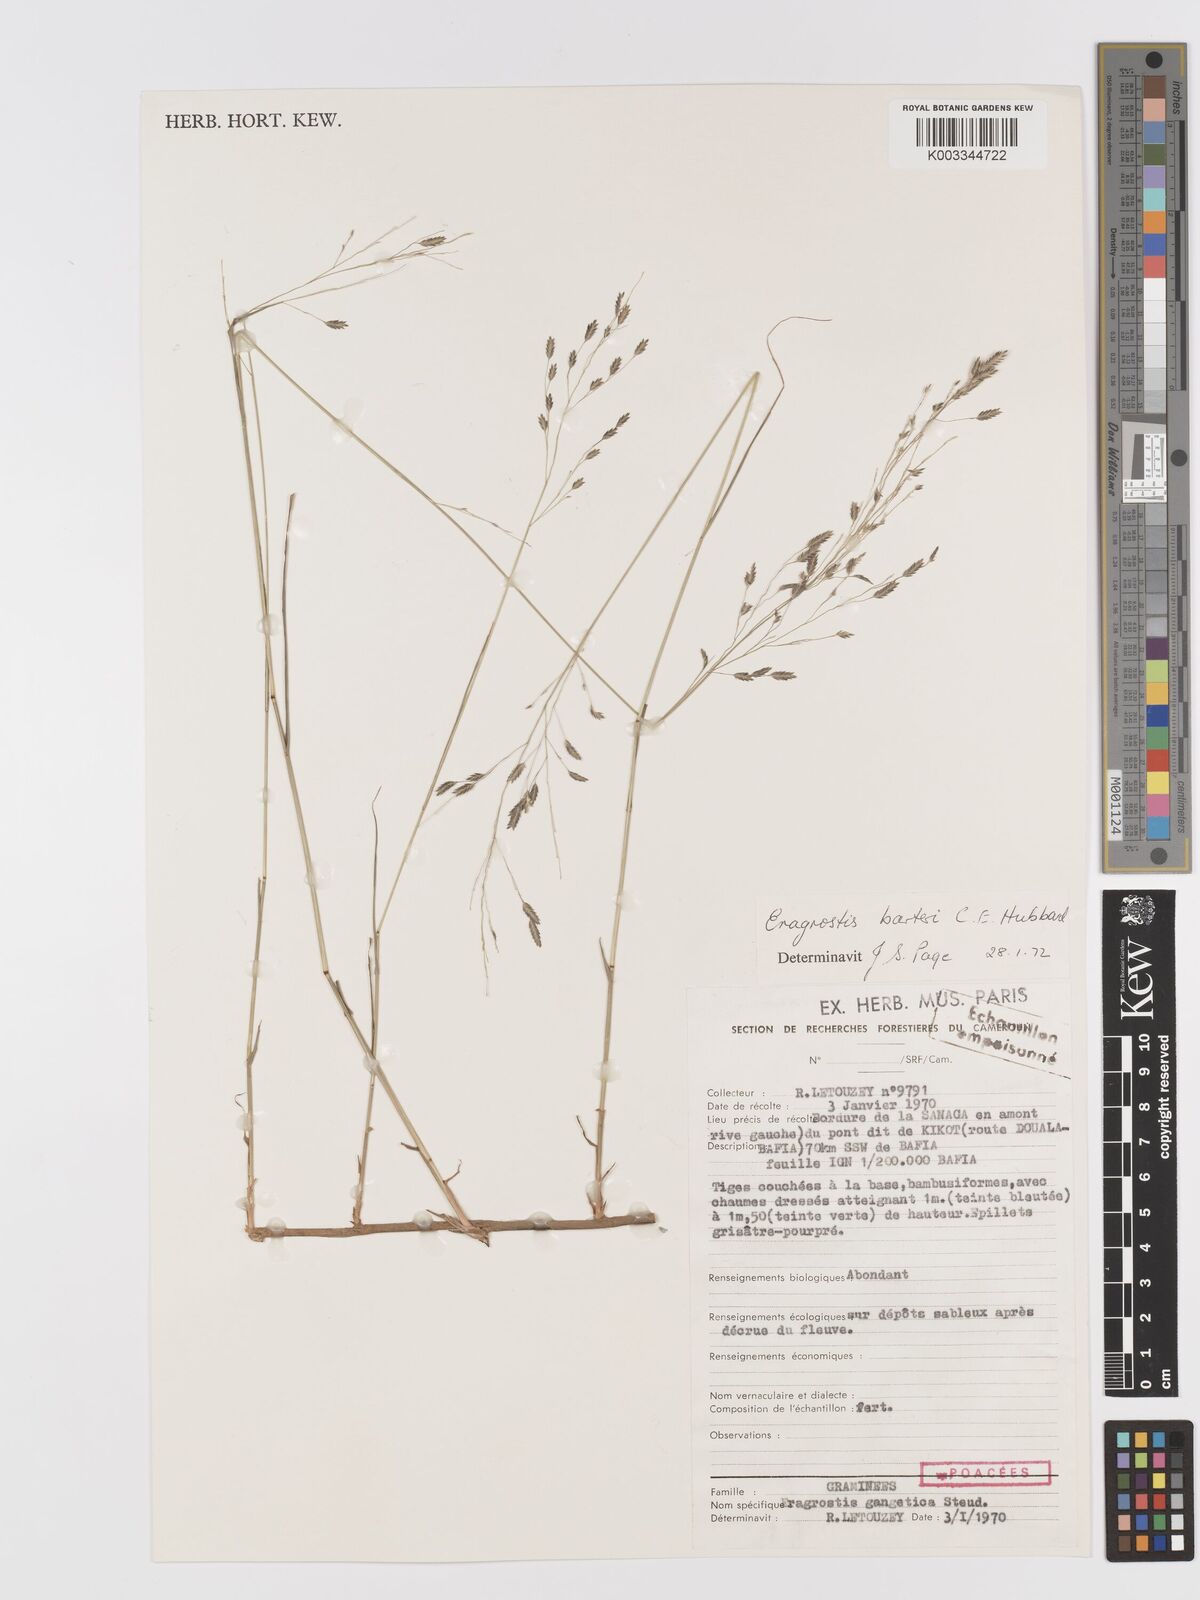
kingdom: Plantae
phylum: Tracheophyta
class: Liliopsida
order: Poales
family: Poaceae
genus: Eragrostis
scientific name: Eragrostis barteri
